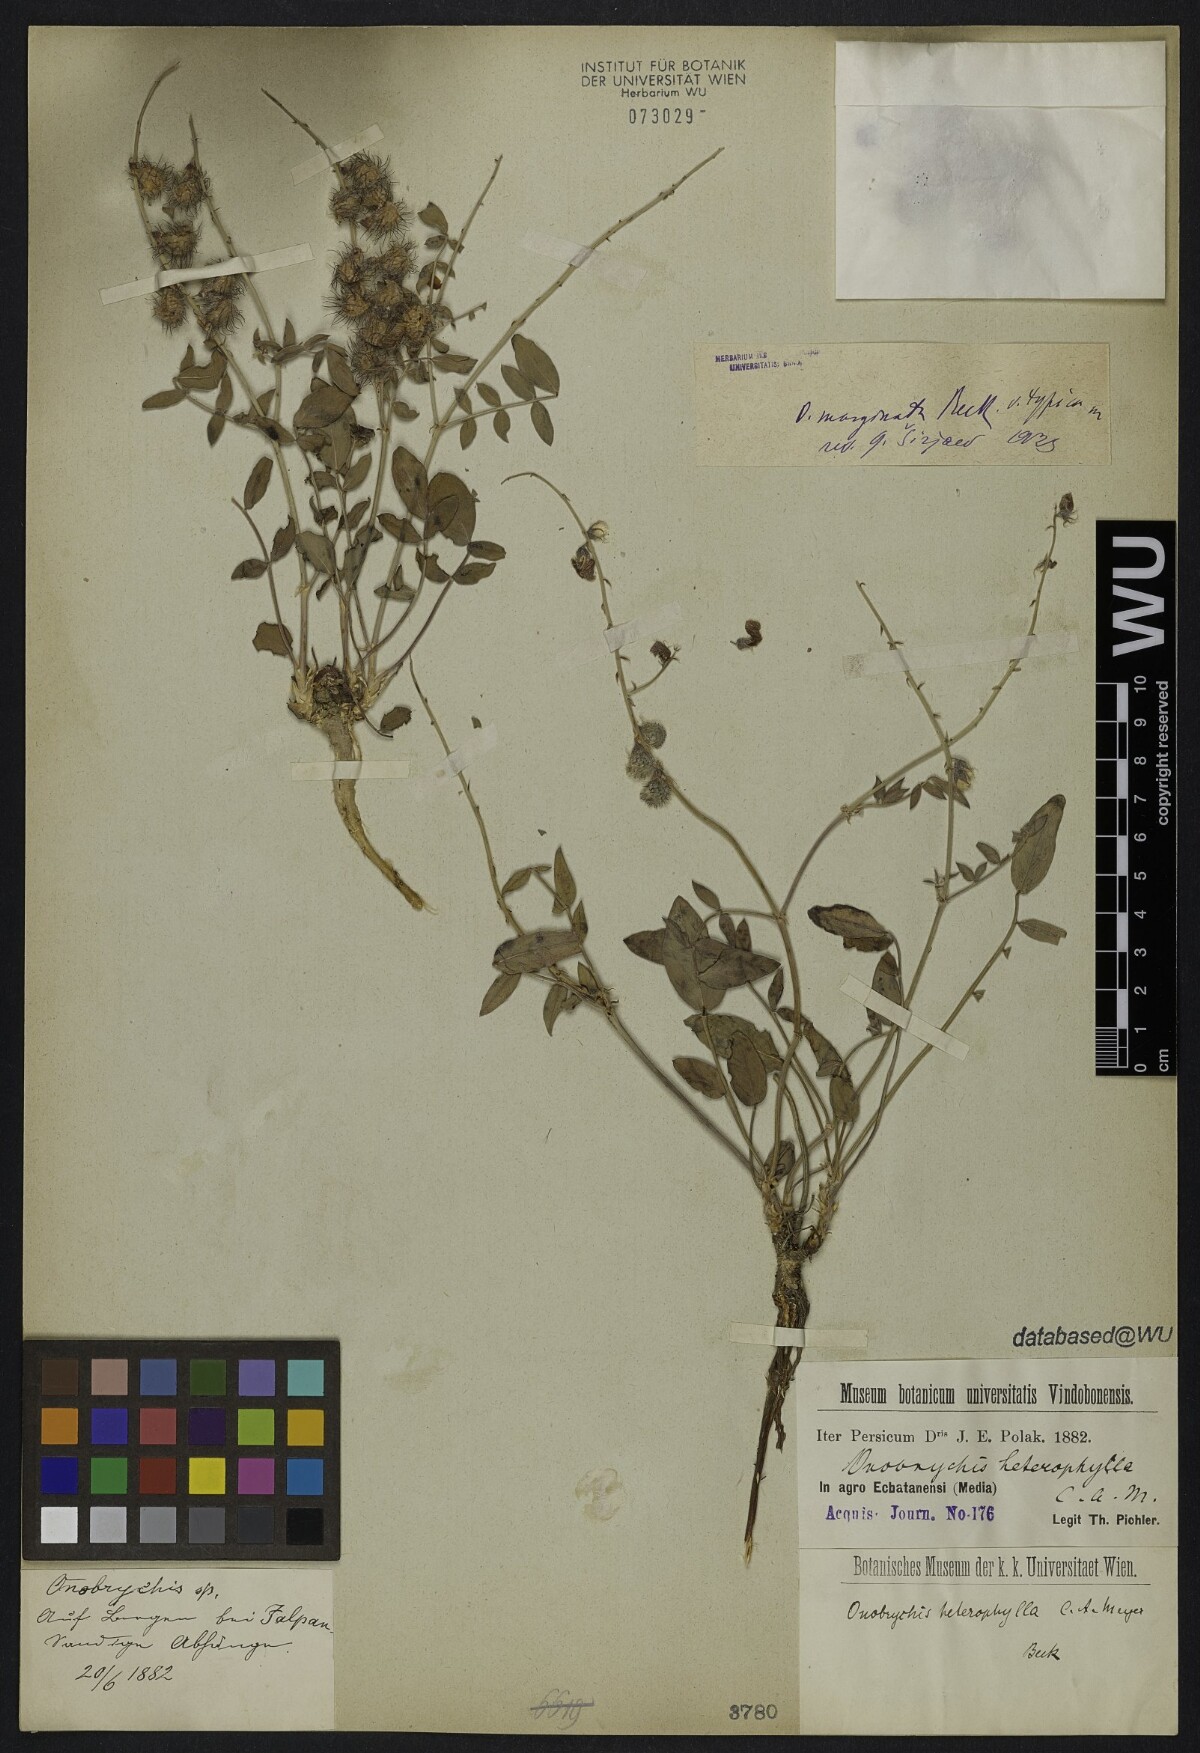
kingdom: Plantae
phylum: Tracheophyta
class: Magnoliopsida
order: Fabales
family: Fabaceae
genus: Onobrychis
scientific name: Onobrychis scrobiculata
